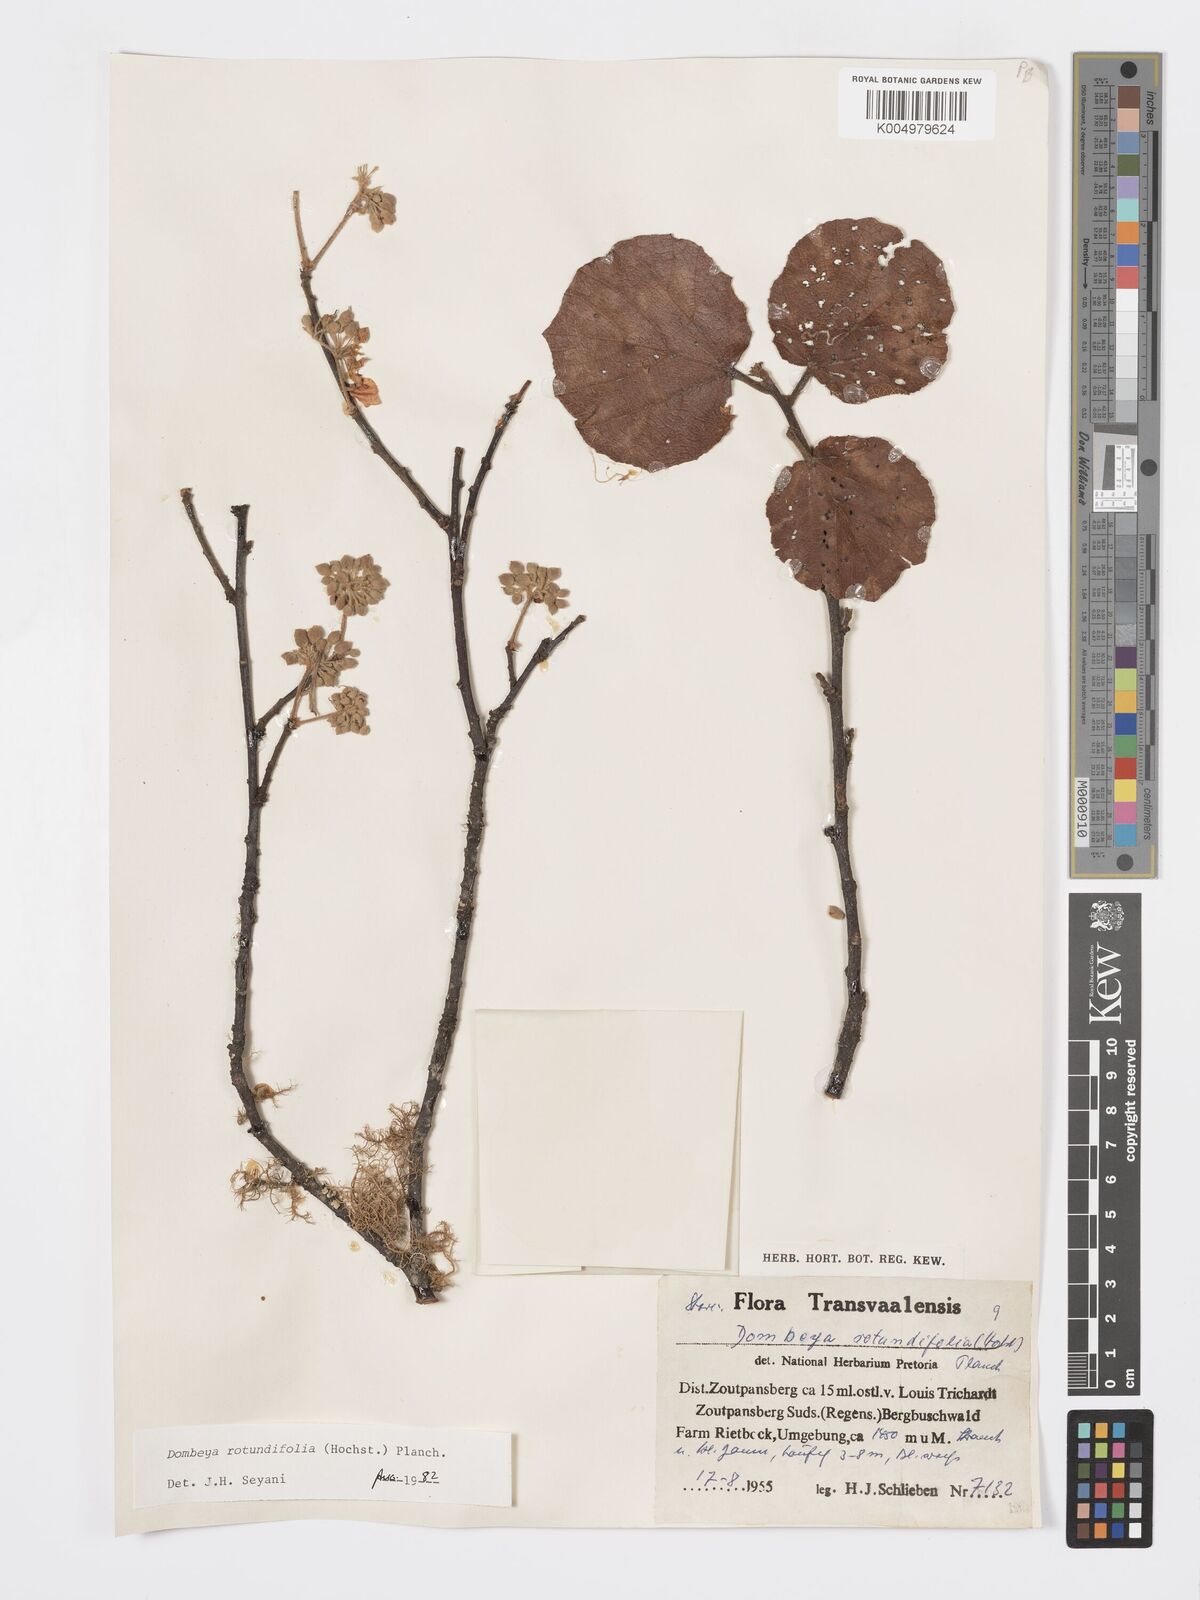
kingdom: Plantae
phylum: Tracheophyta
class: Magnoliopsida
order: Malvales
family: Malvaceae
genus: Dombeya
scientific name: Dombeya rotundifolia
